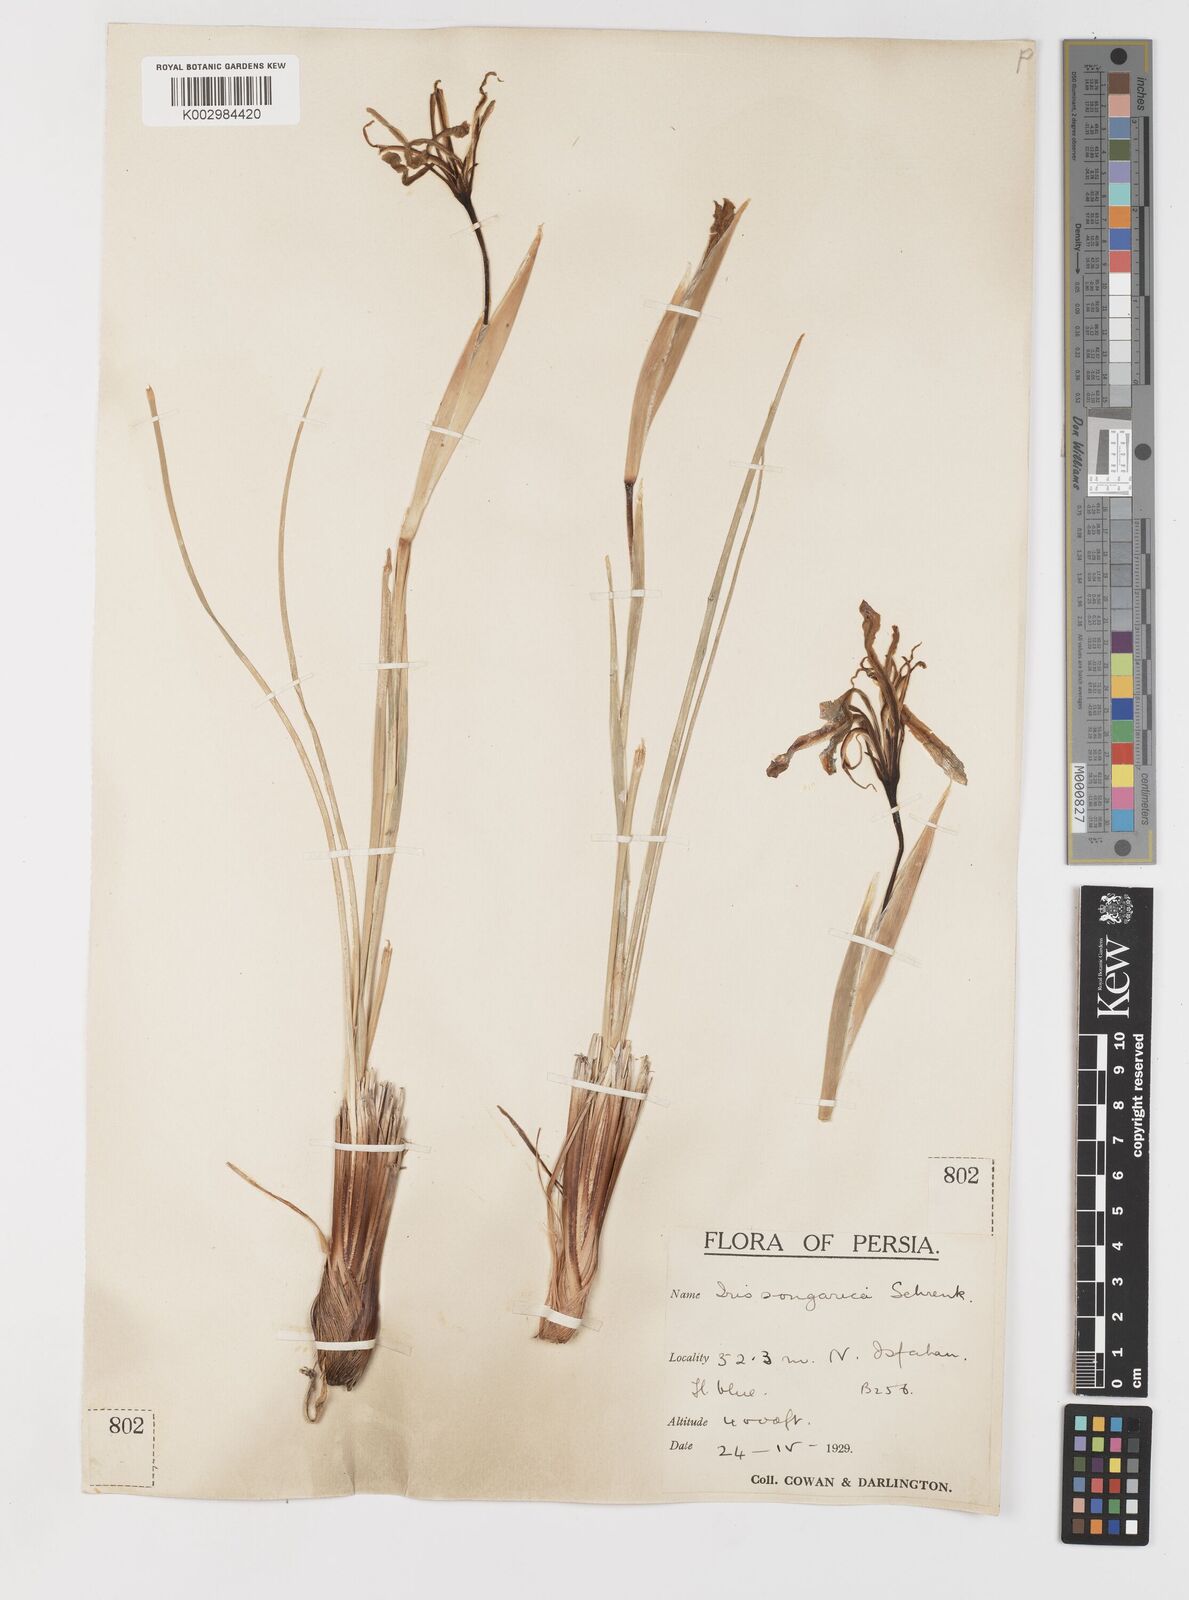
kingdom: Plantae
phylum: Tracheophyta
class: Liliopsida
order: Asparagales
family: Iridaceae
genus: Iris
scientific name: Iris songarica
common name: Songar iris
